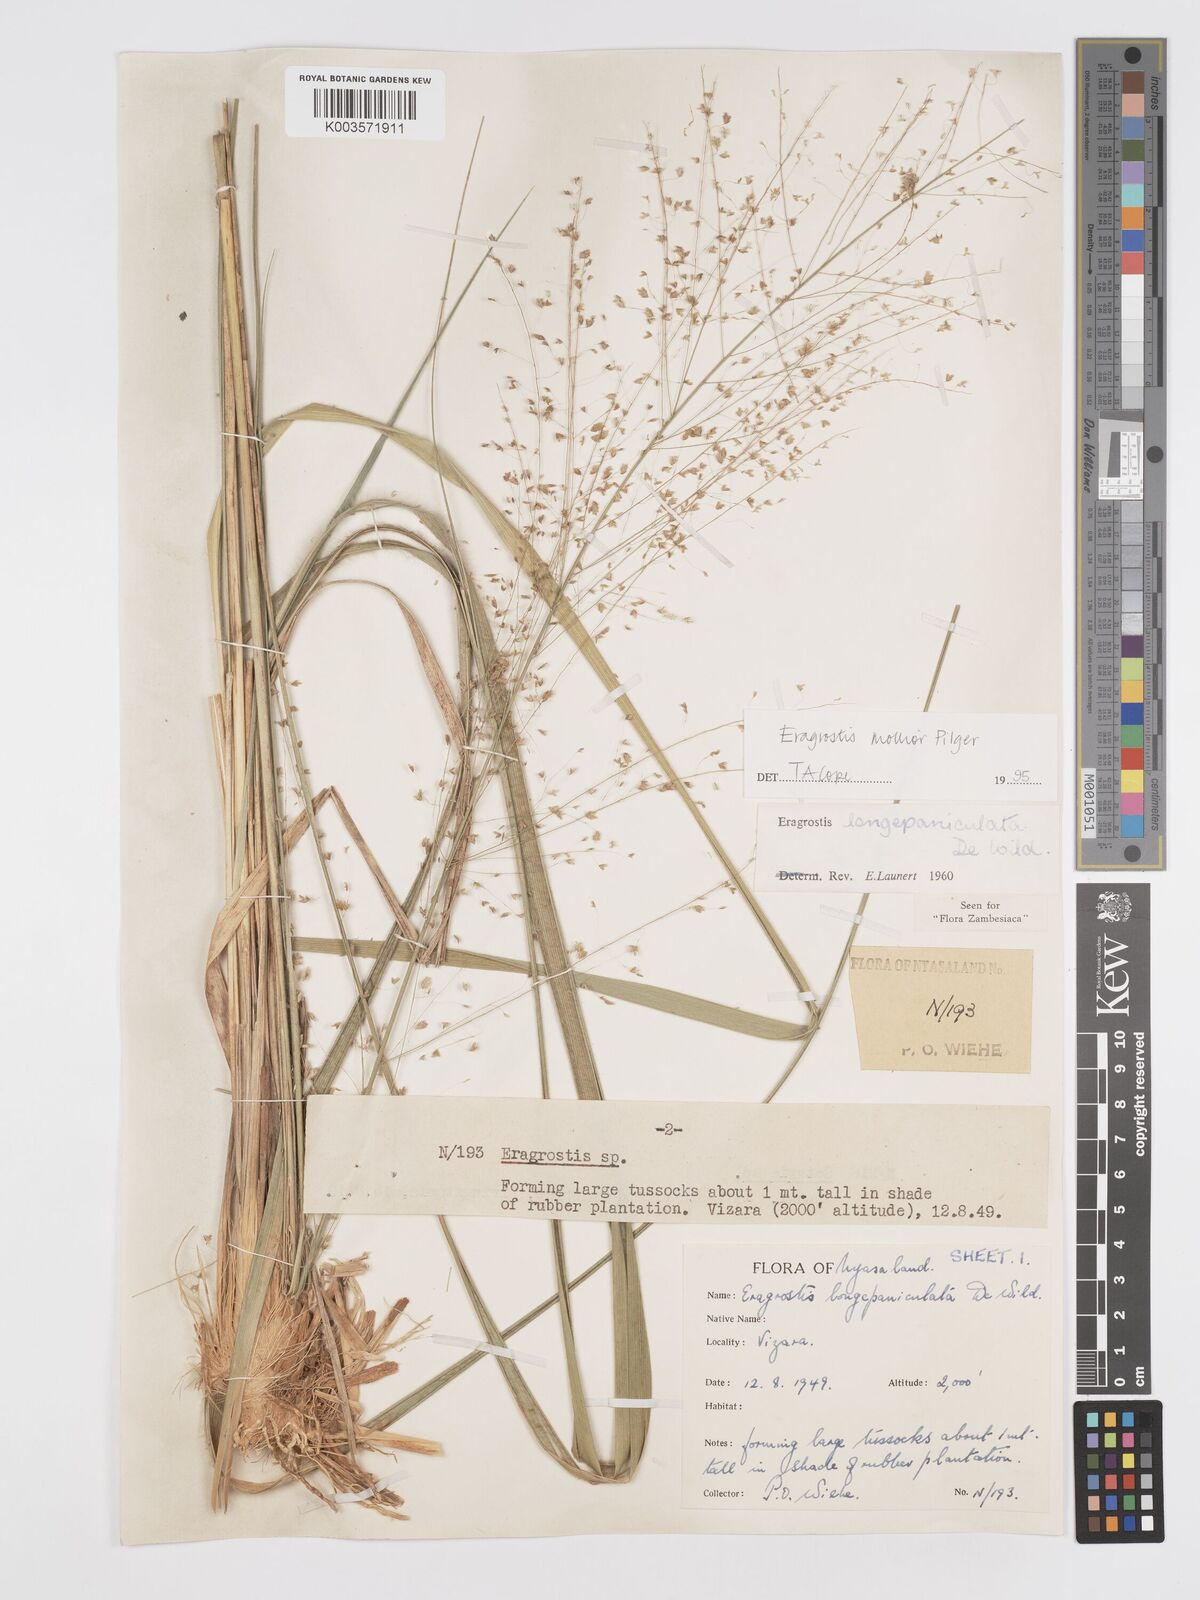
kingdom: Plantae
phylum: Tracheophyta
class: Liliopsida
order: Poales
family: Poaceae
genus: Eragrostis
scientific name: Eragrostis mollior
